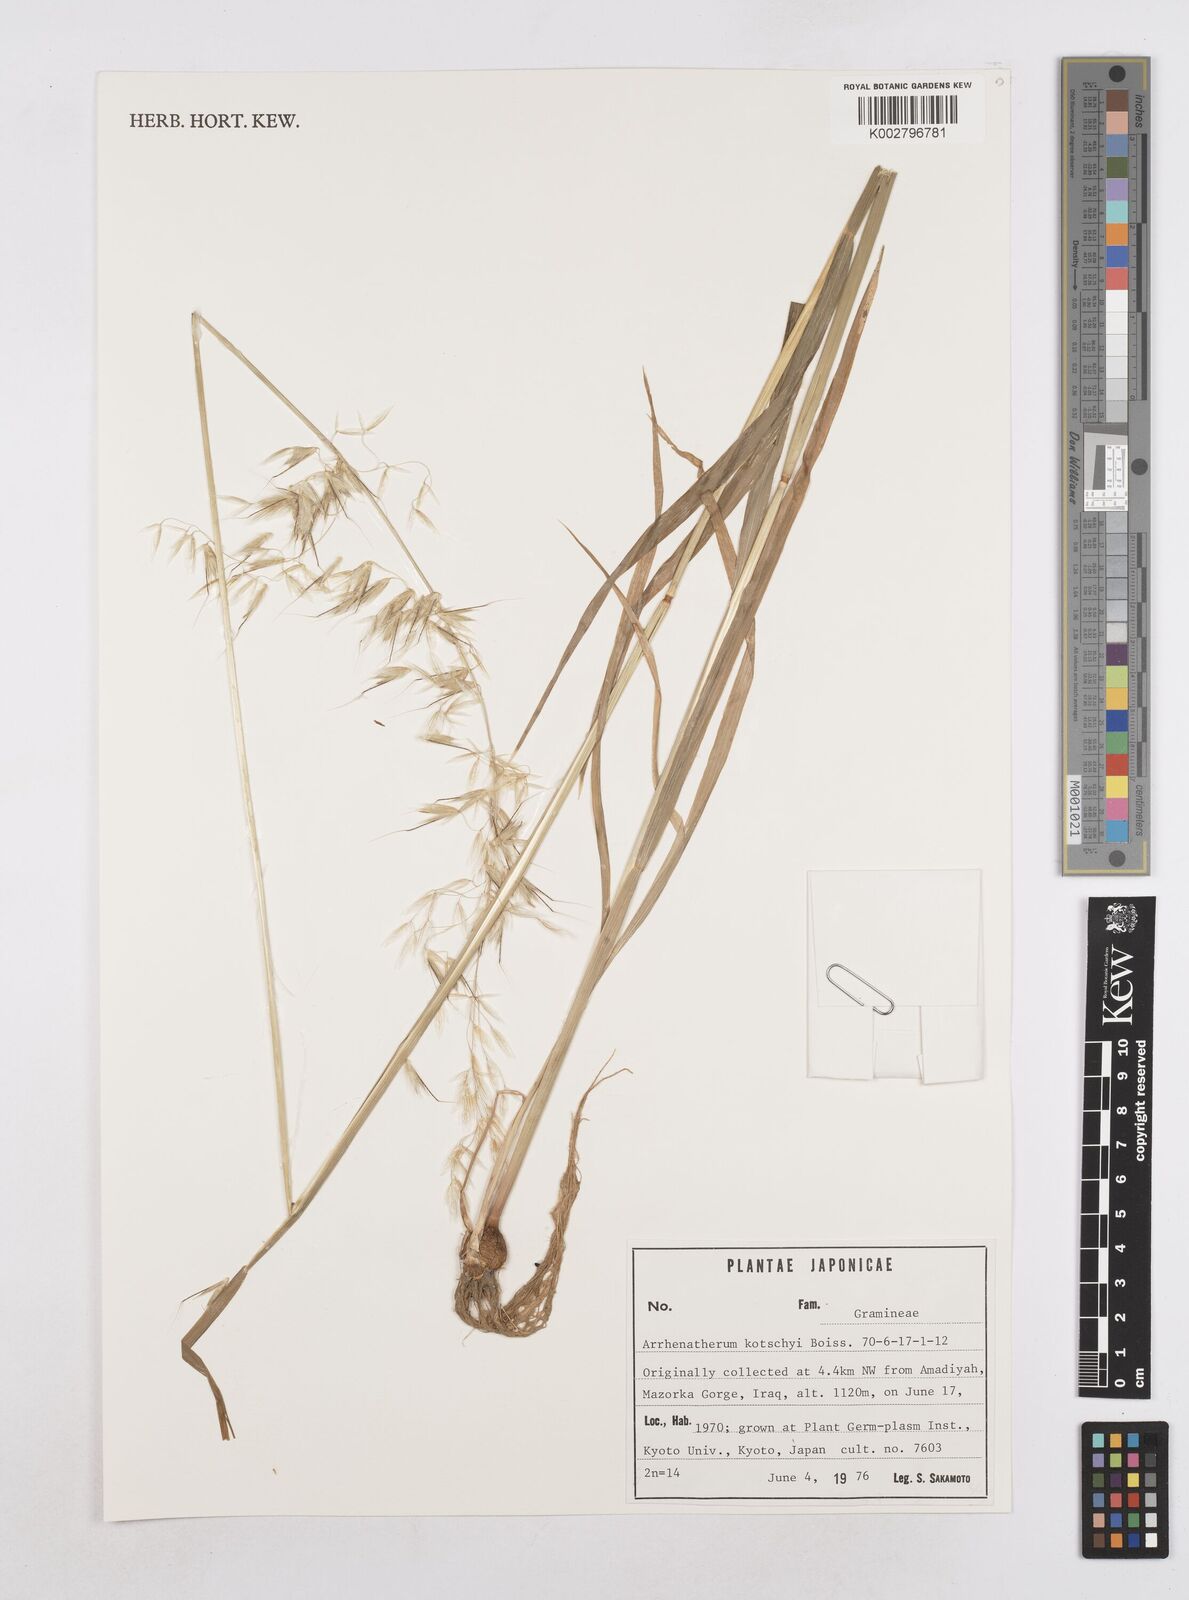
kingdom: Plantae
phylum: Tracheophyta
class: Liliopsida
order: Poales
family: Poaceae
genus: Arrhenatherum
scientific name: Arrhenatherum kotschyi
